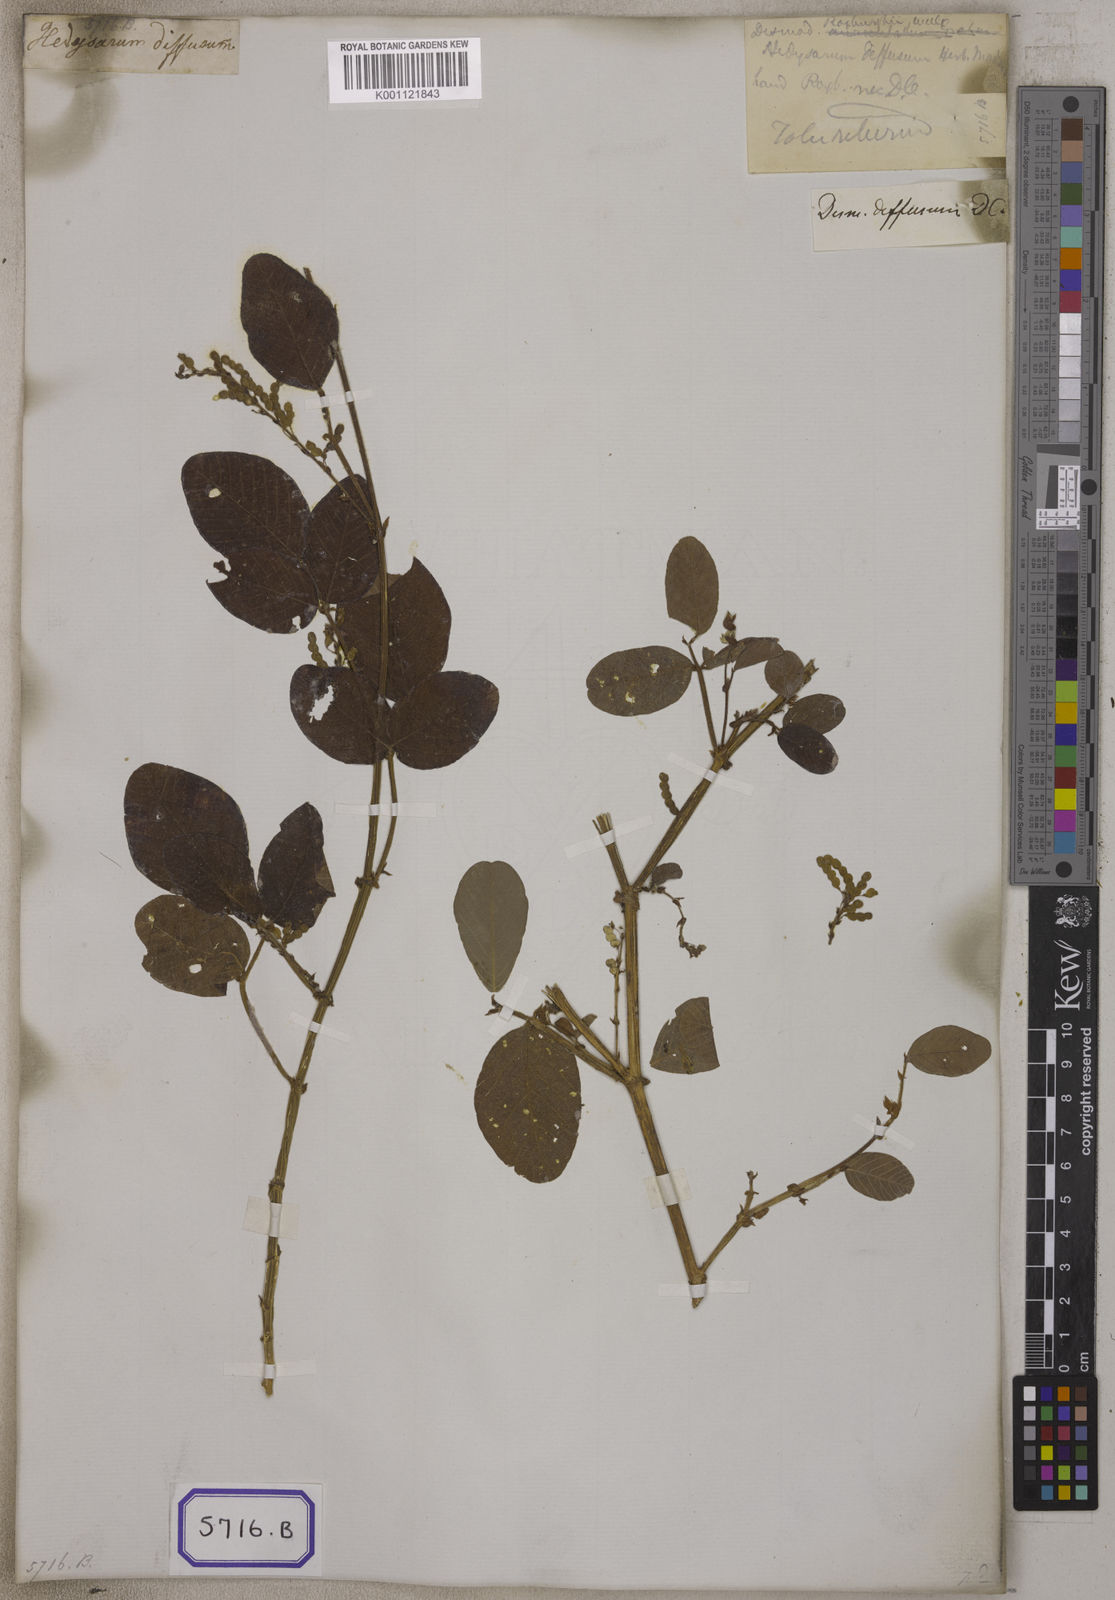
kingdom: Plantae
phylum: Tracheophyta
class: Magnoliopsida
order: Fabales
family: Fabaceae
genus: Polhillides
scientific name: Polhillides velutina
